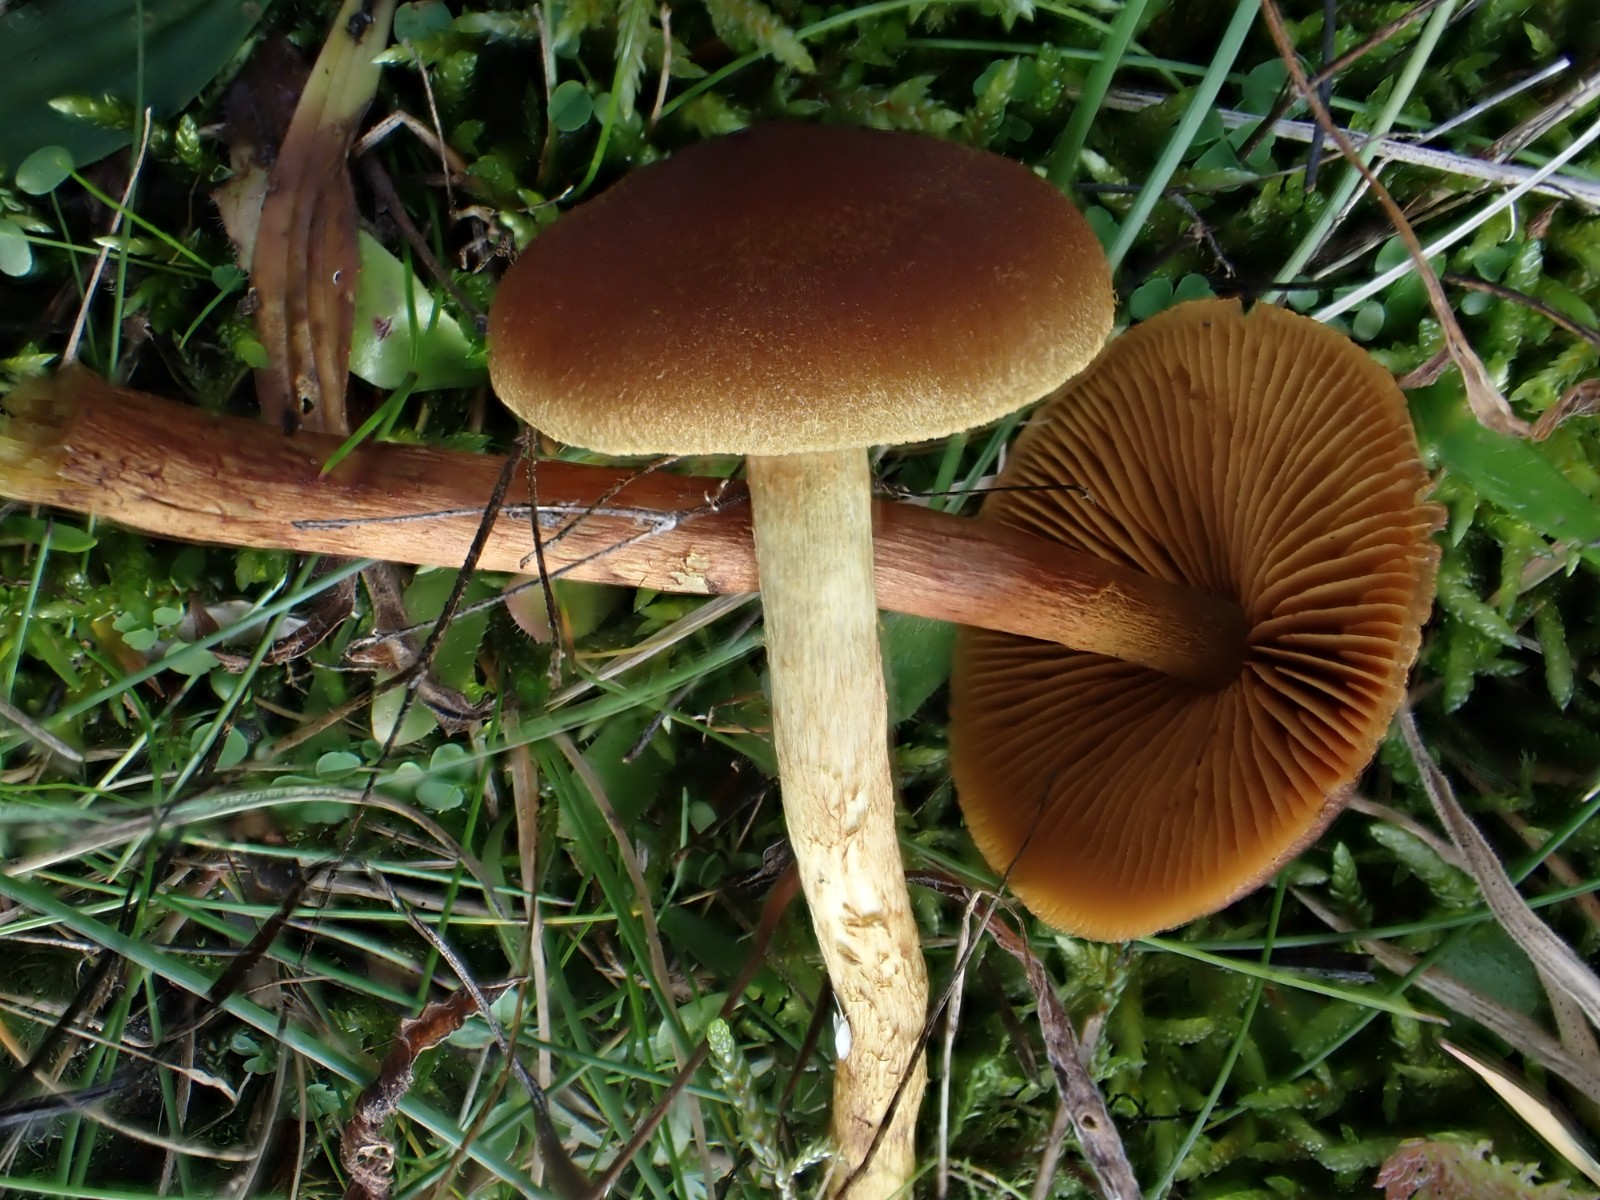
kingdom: Fungi
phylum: Basidiomycota
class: Agaricomycetes
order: Agaricales
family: Cortinariaceae
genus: Cortinarius
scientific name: Cortinarius
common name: gulbladet slørhat
